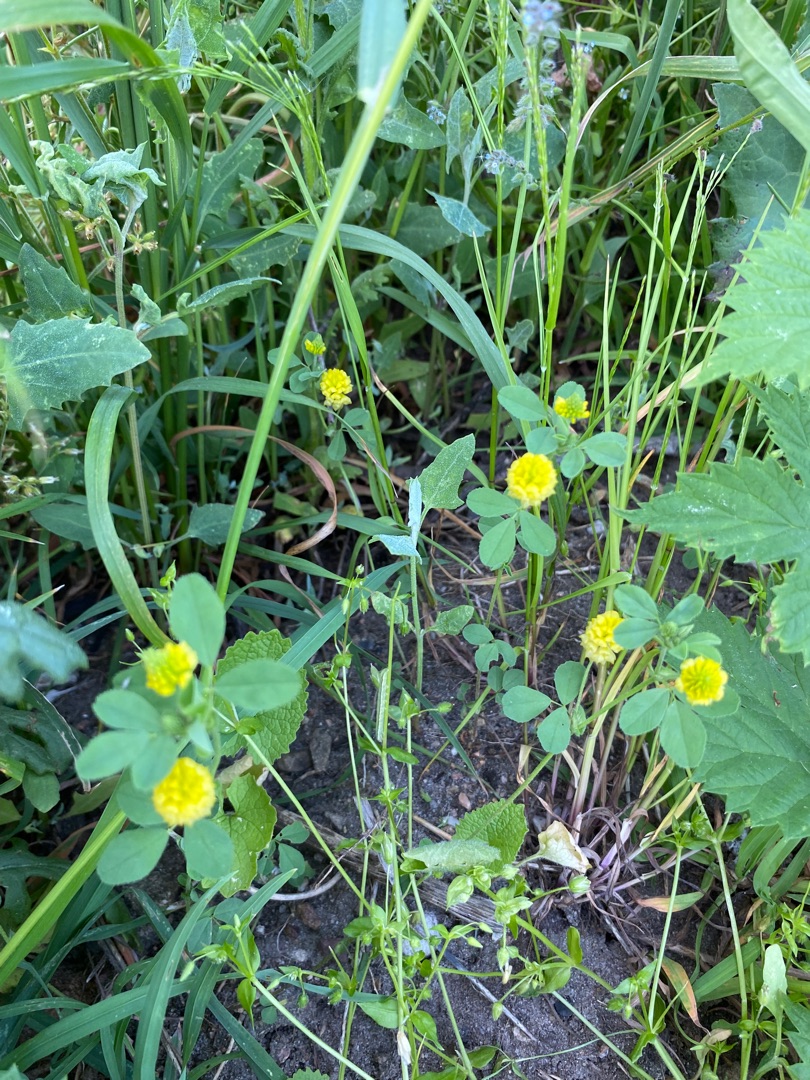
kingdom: Plantae
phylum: Tracheophyta
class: Magnoliopsida
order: Fabales
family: Fabaceae
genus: Trifolium
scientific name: Trifolium campestre
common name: Gul kløver
